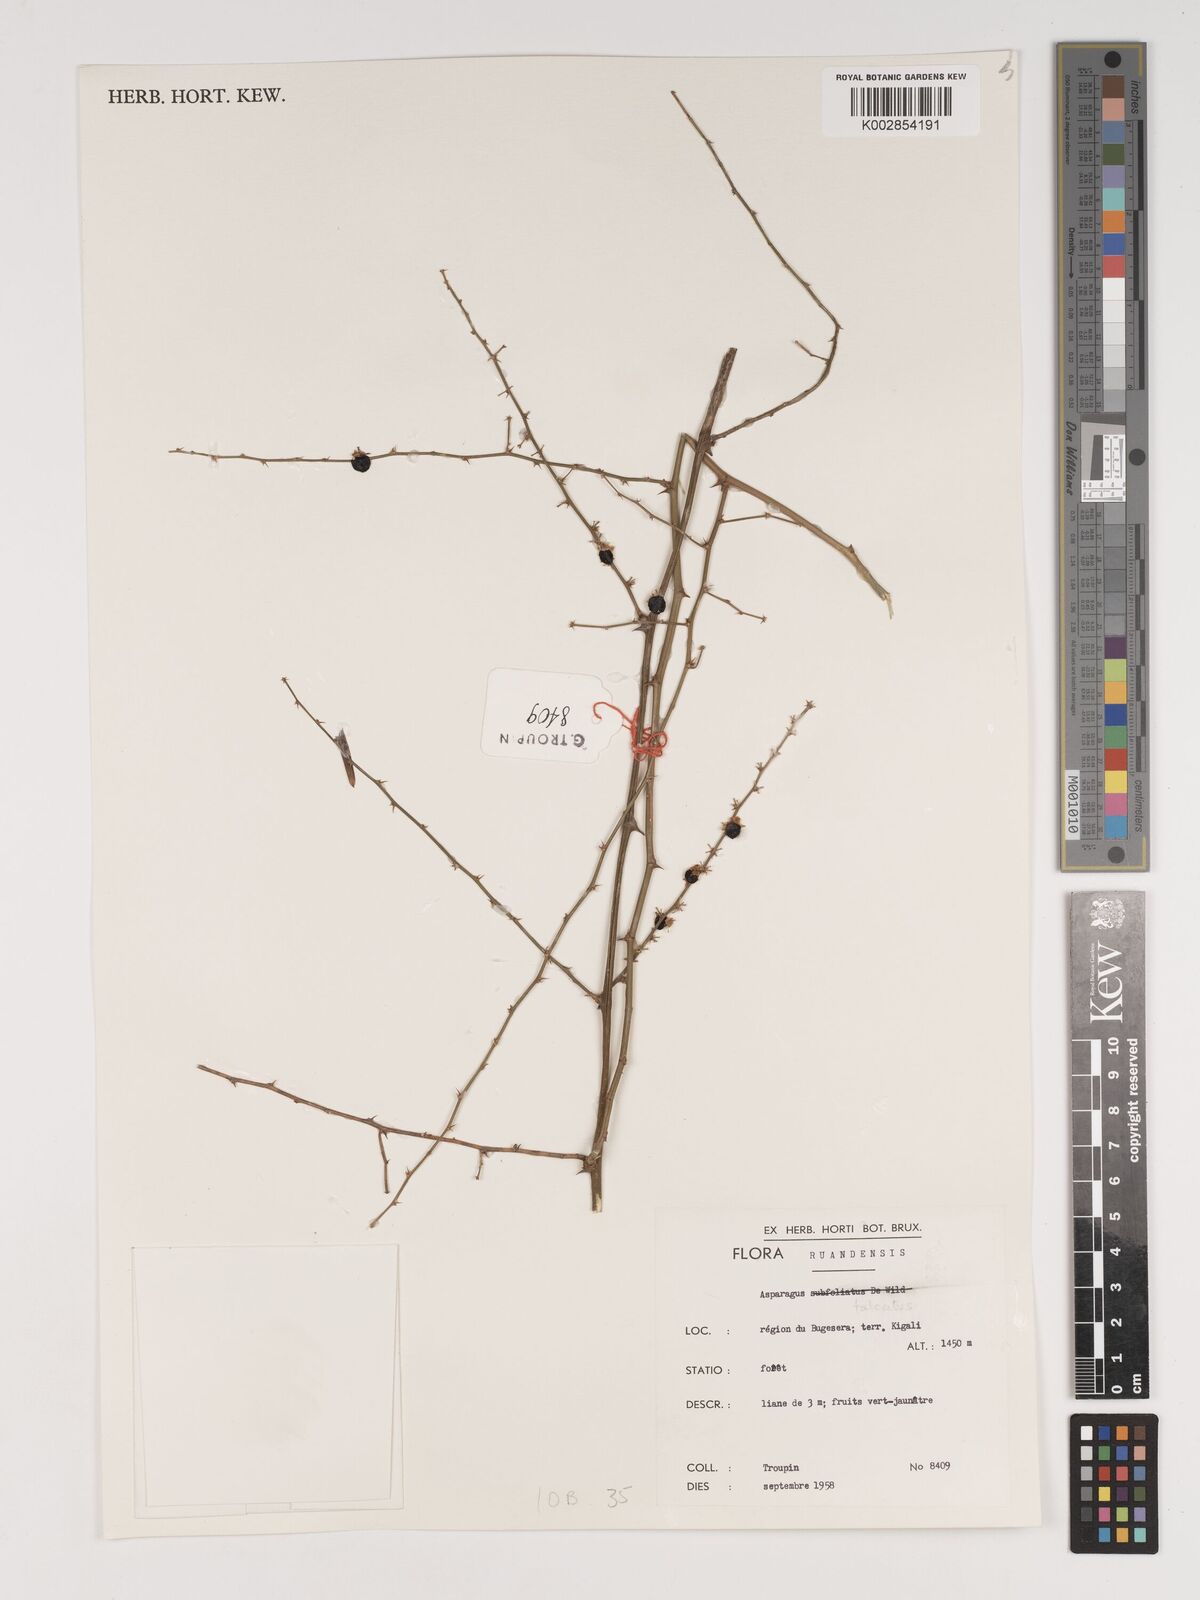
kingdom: Plantae
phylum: Tracheophyta
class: Liliopsida
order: Asparagales
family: Asparagaceae
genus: Asparagus
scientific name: Asparagus falcatus
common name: Asparagus
